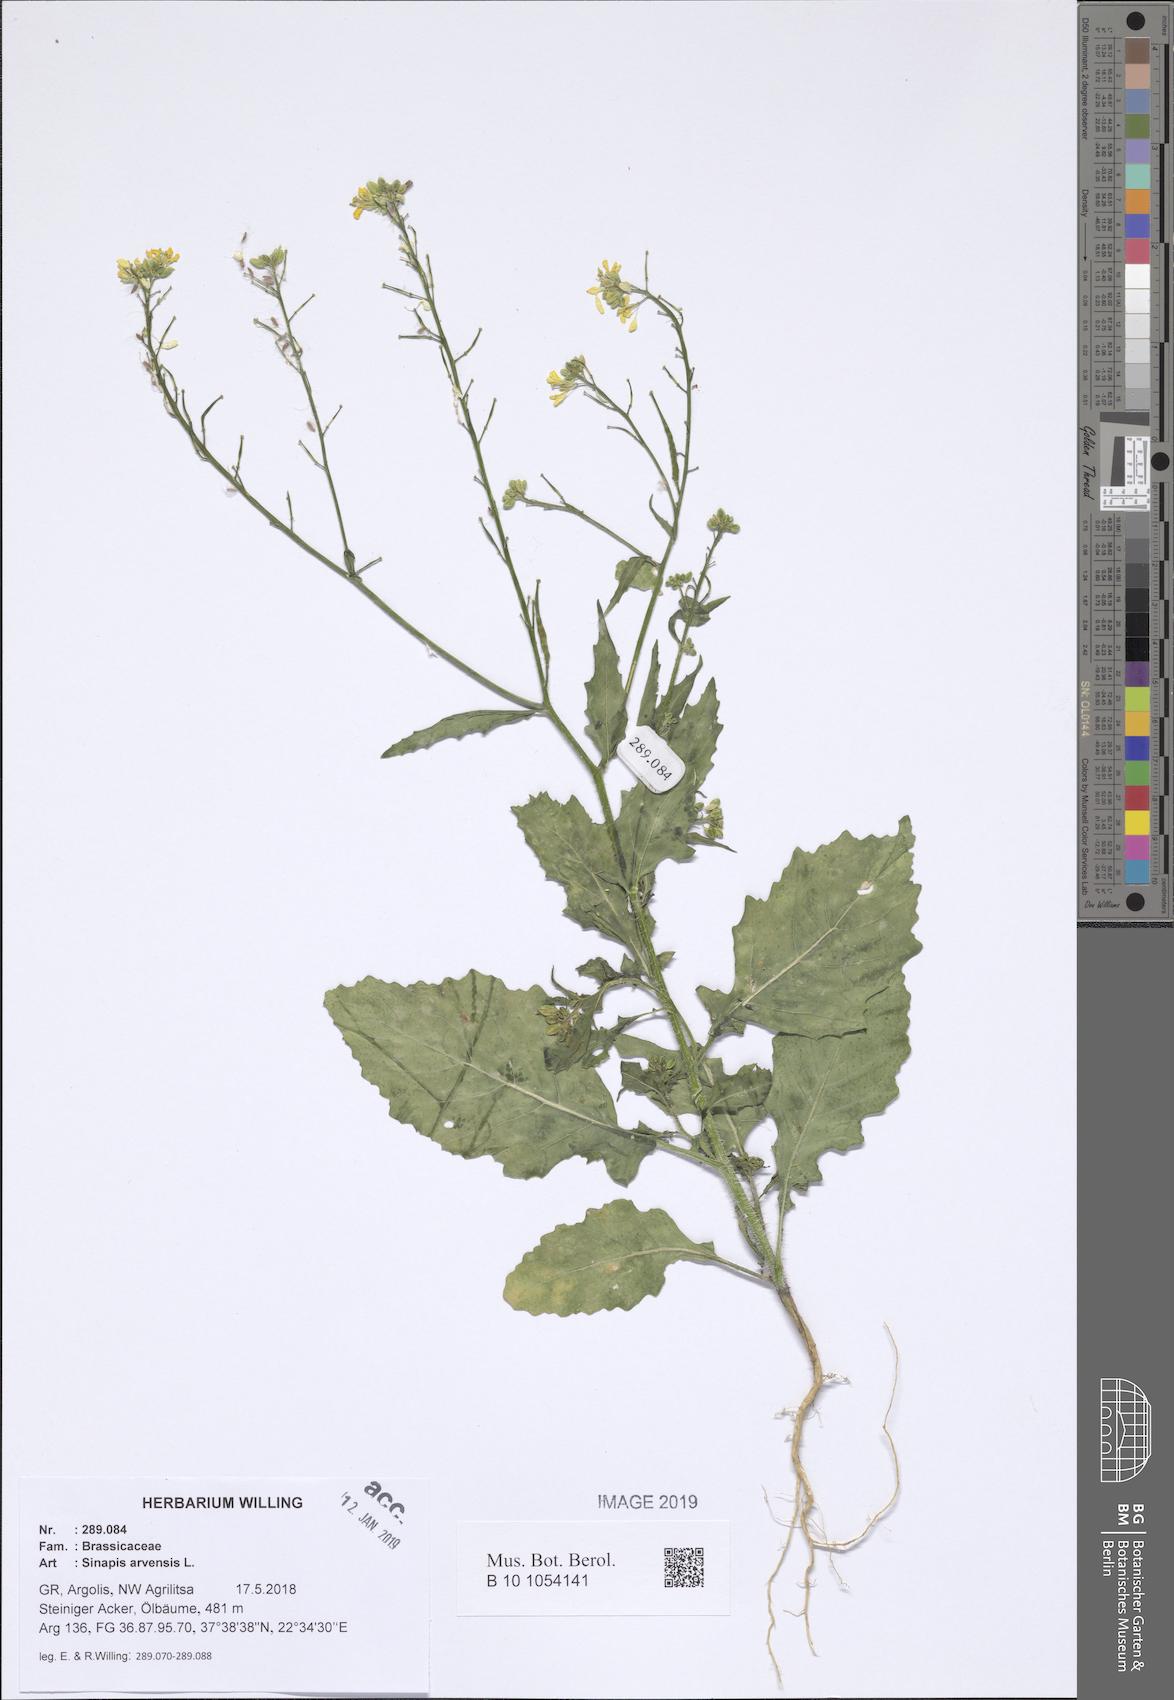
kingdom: Plantae
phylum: Tracheophyta
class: Magnoliopsida
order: Brassicales
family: Brassicaceae
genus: Sinapis
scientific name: Sinapis arvensis
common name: Charlock
